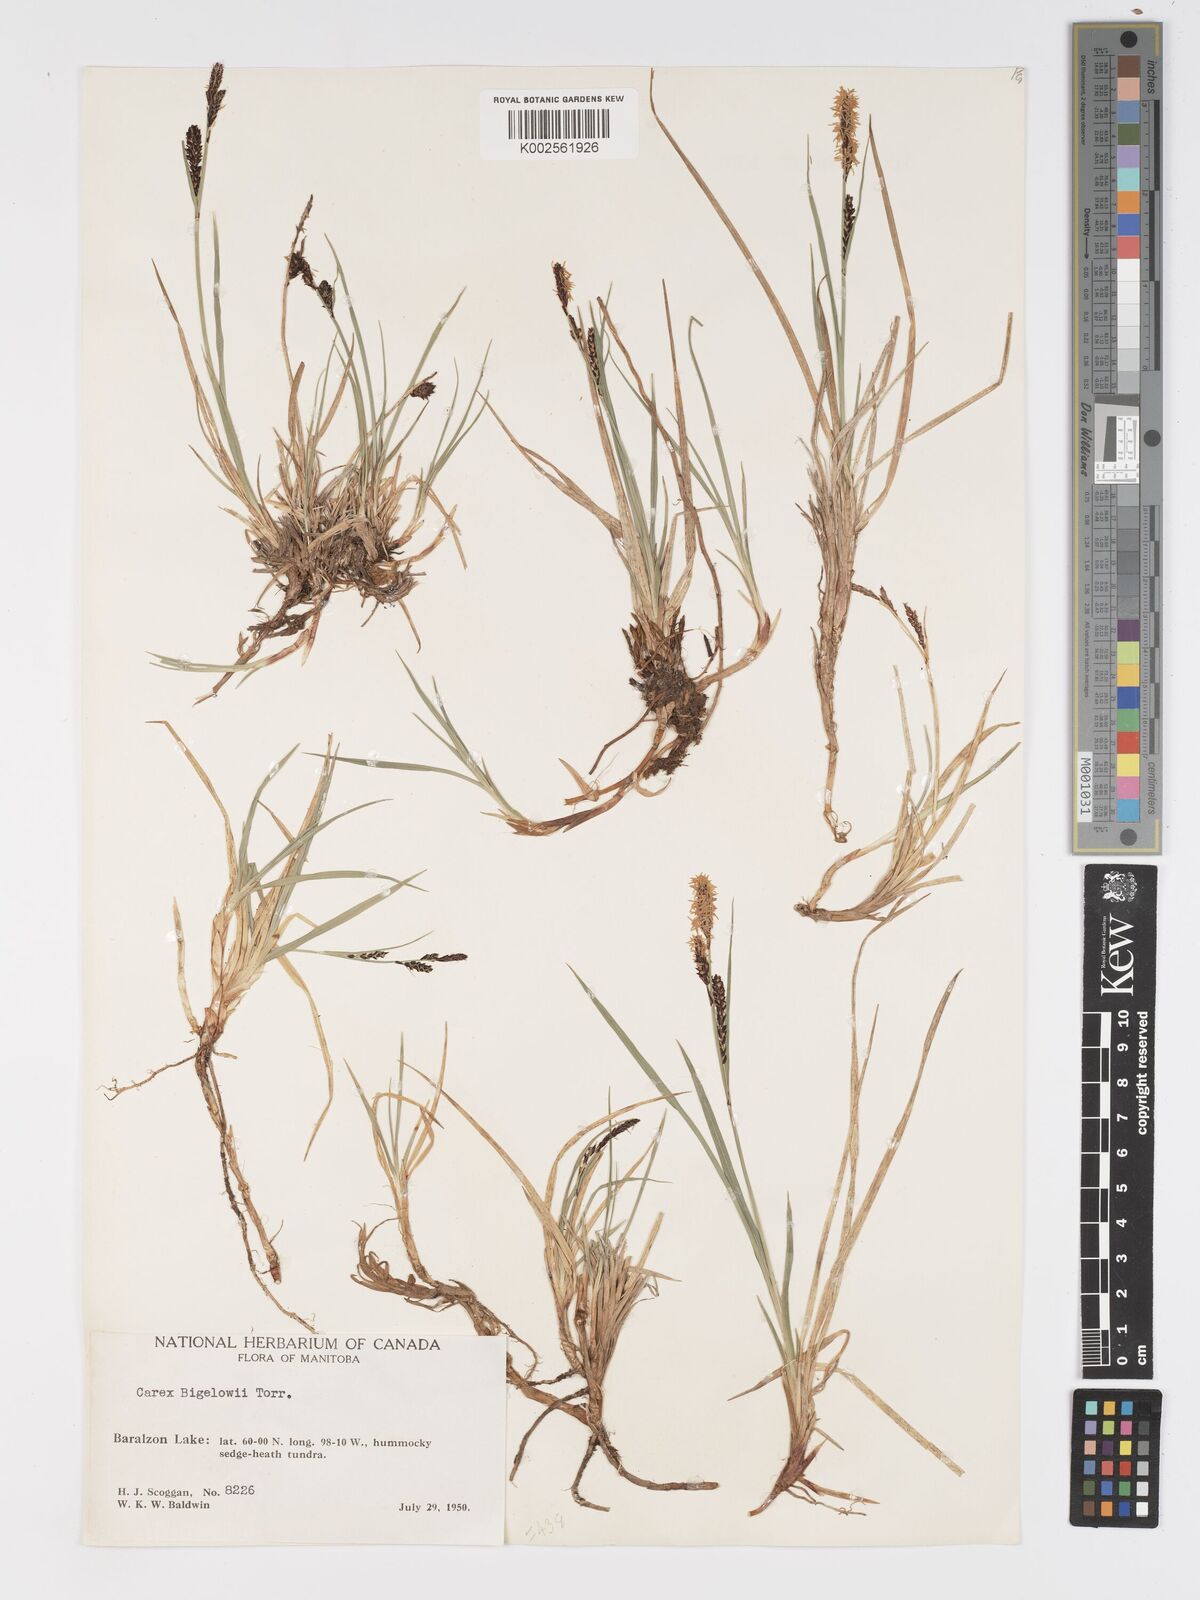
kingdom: Plantae
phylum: Tracheophyta
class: Liliopsida
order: Poales
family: Cyperaceae
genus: Carex
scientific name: Carex bigelowii
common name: Stiff sedge
